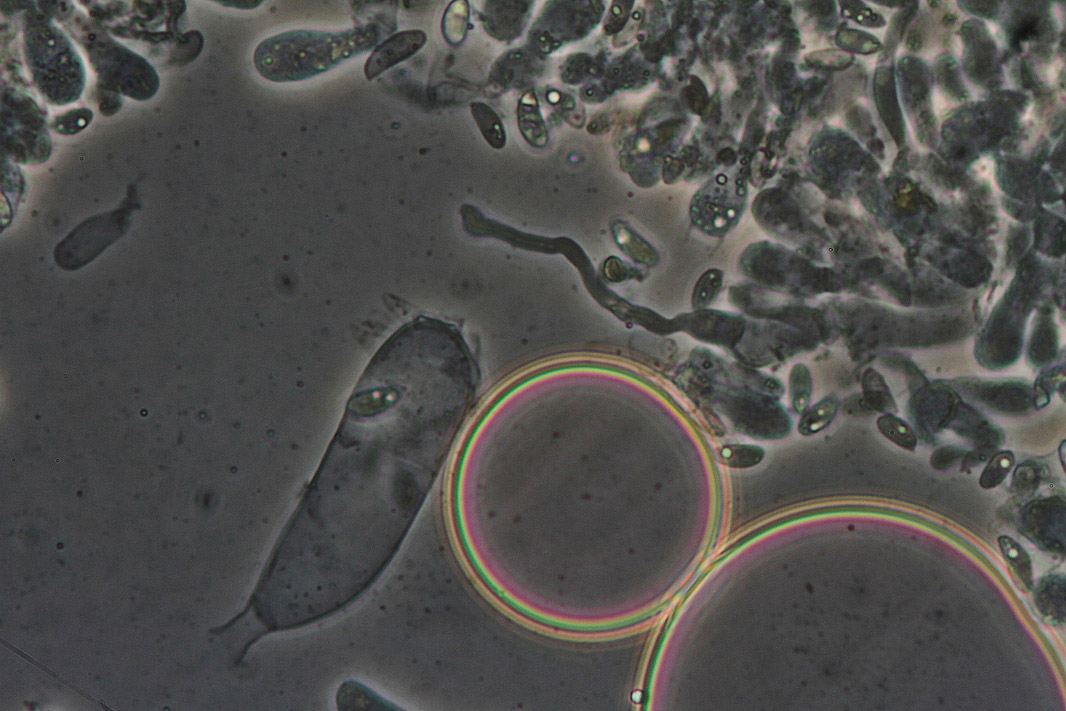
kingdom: Fungi
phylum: Basidiomycota
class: Agaricomycetes
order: Agaricales
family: Crepidotaceae
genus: Crepidotus
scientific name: Crepidotus epibryus
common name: førne-muslingesvamp
